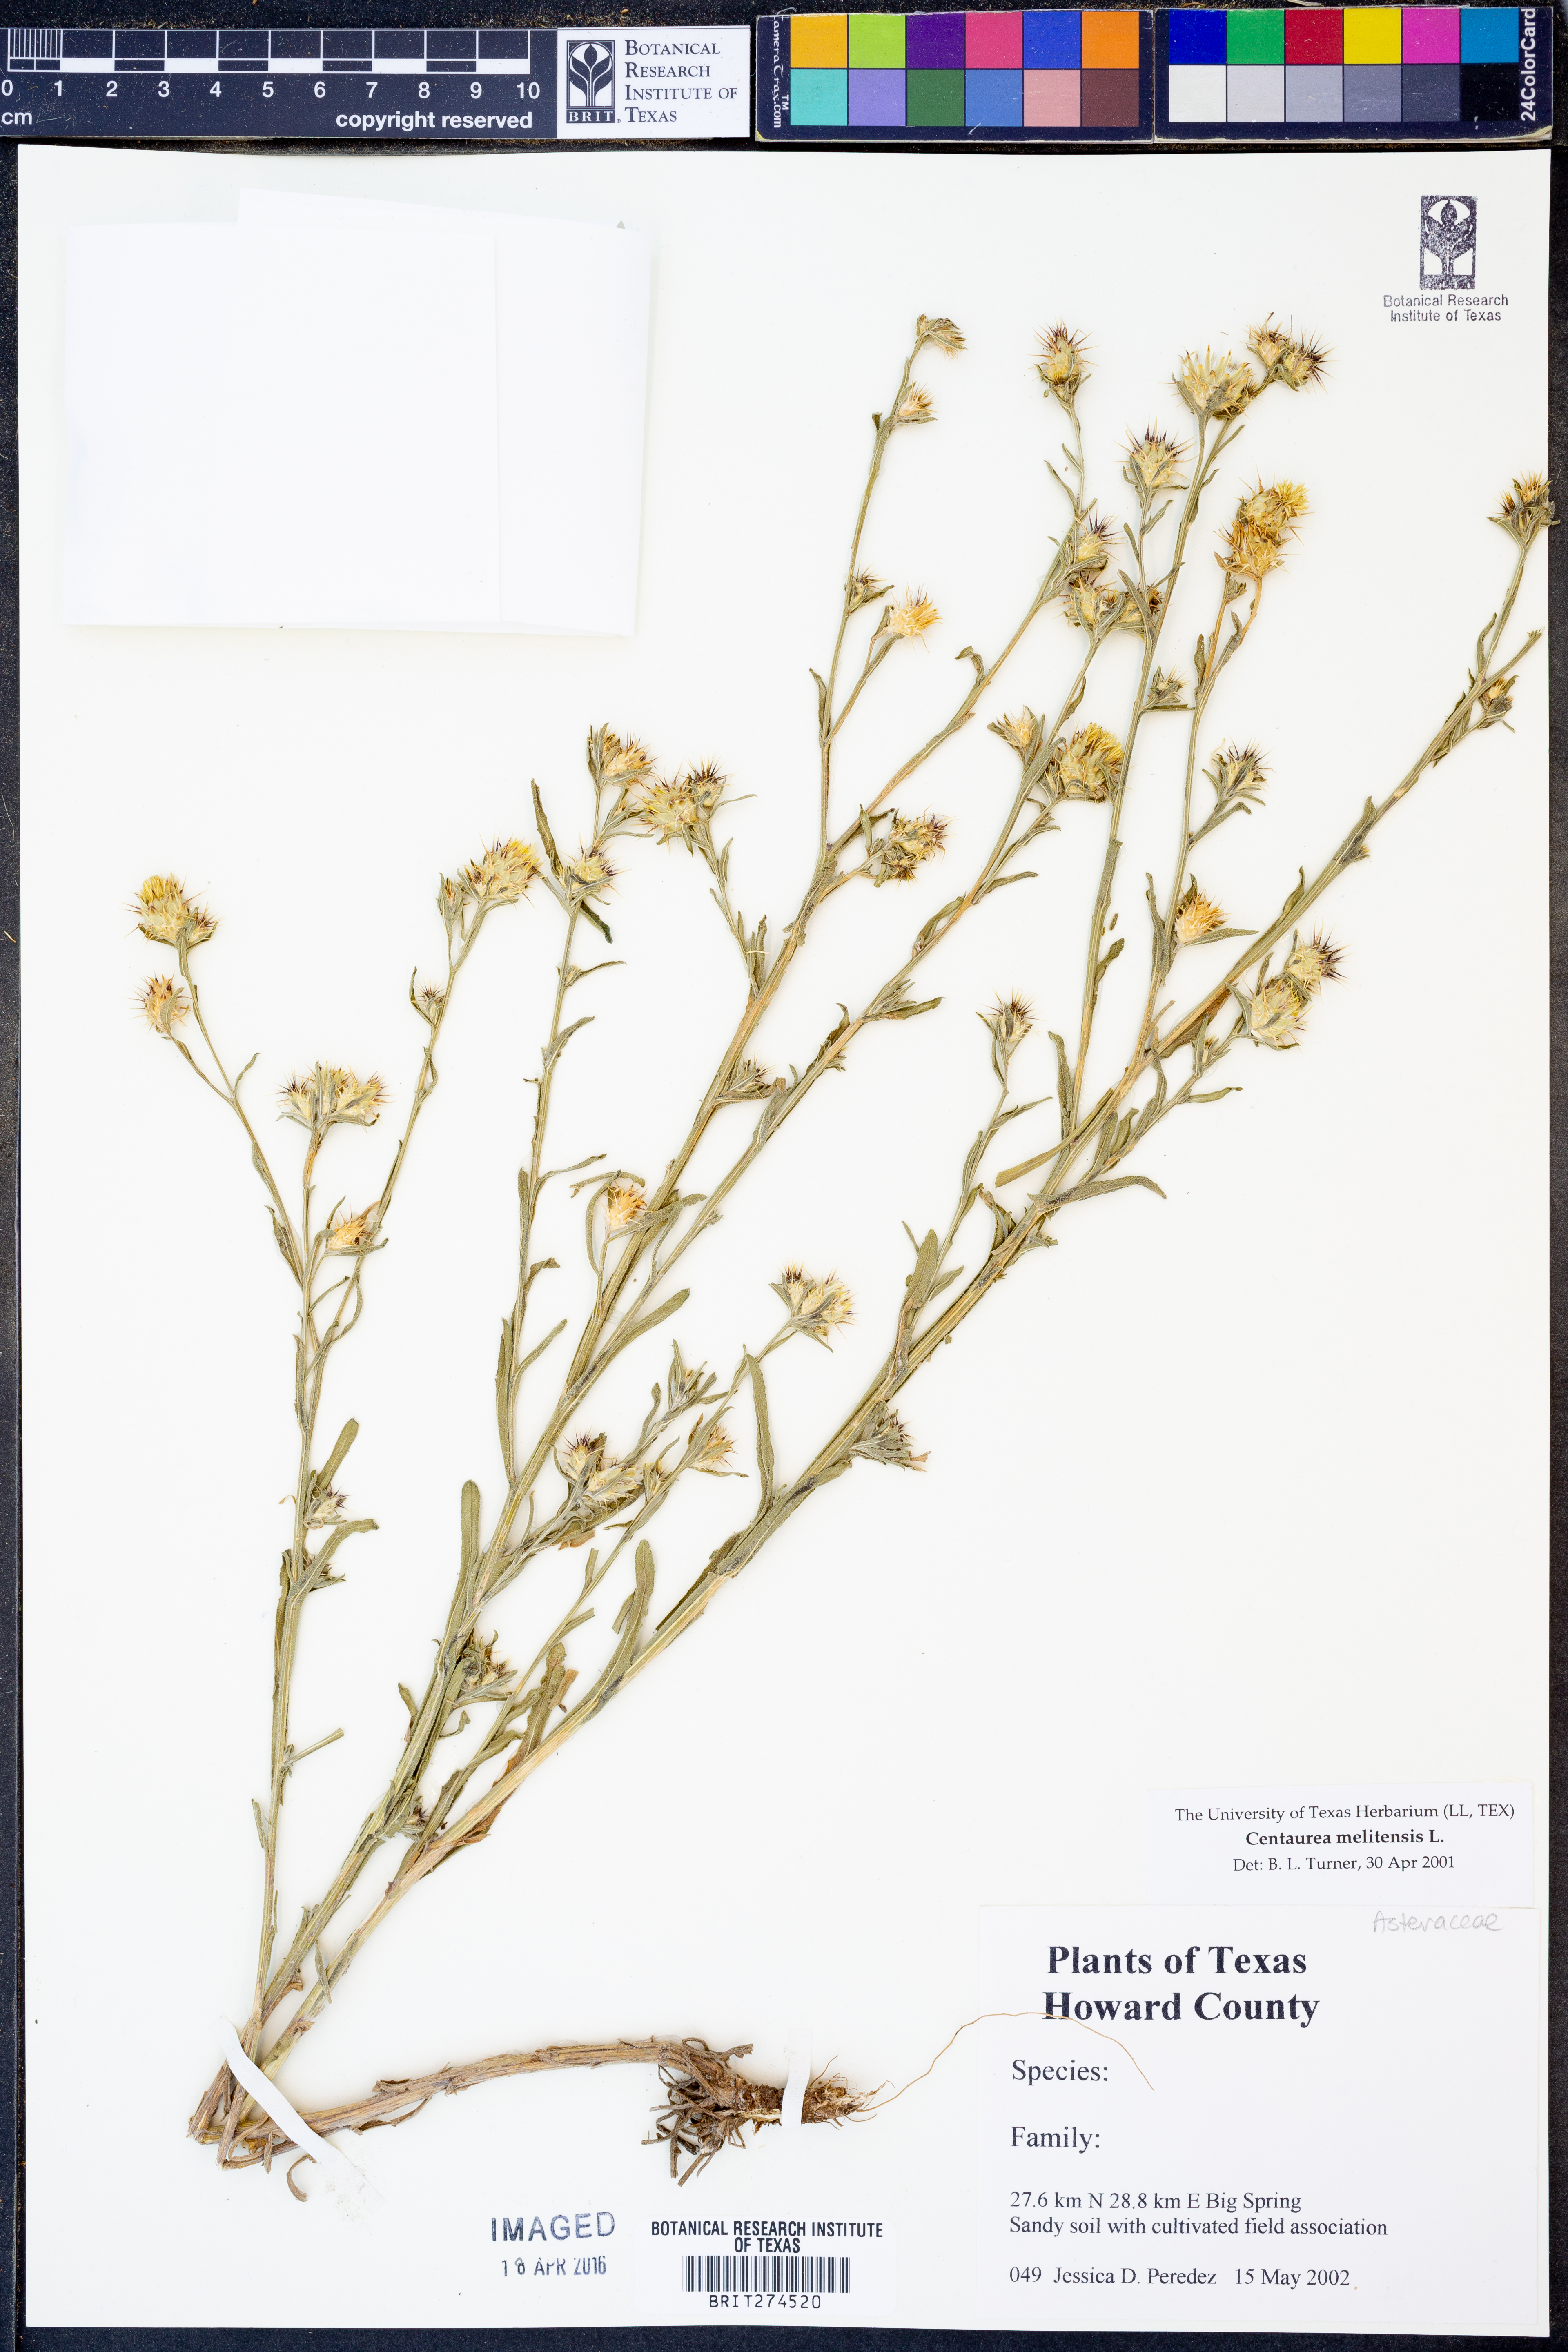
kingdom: Plantae
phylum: Tracheophyta
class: Magnoliopsida
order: Asterales
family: Asteraceae
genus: Centaurea
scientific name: Centaurea melitensis
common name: Maltese star-thistle
